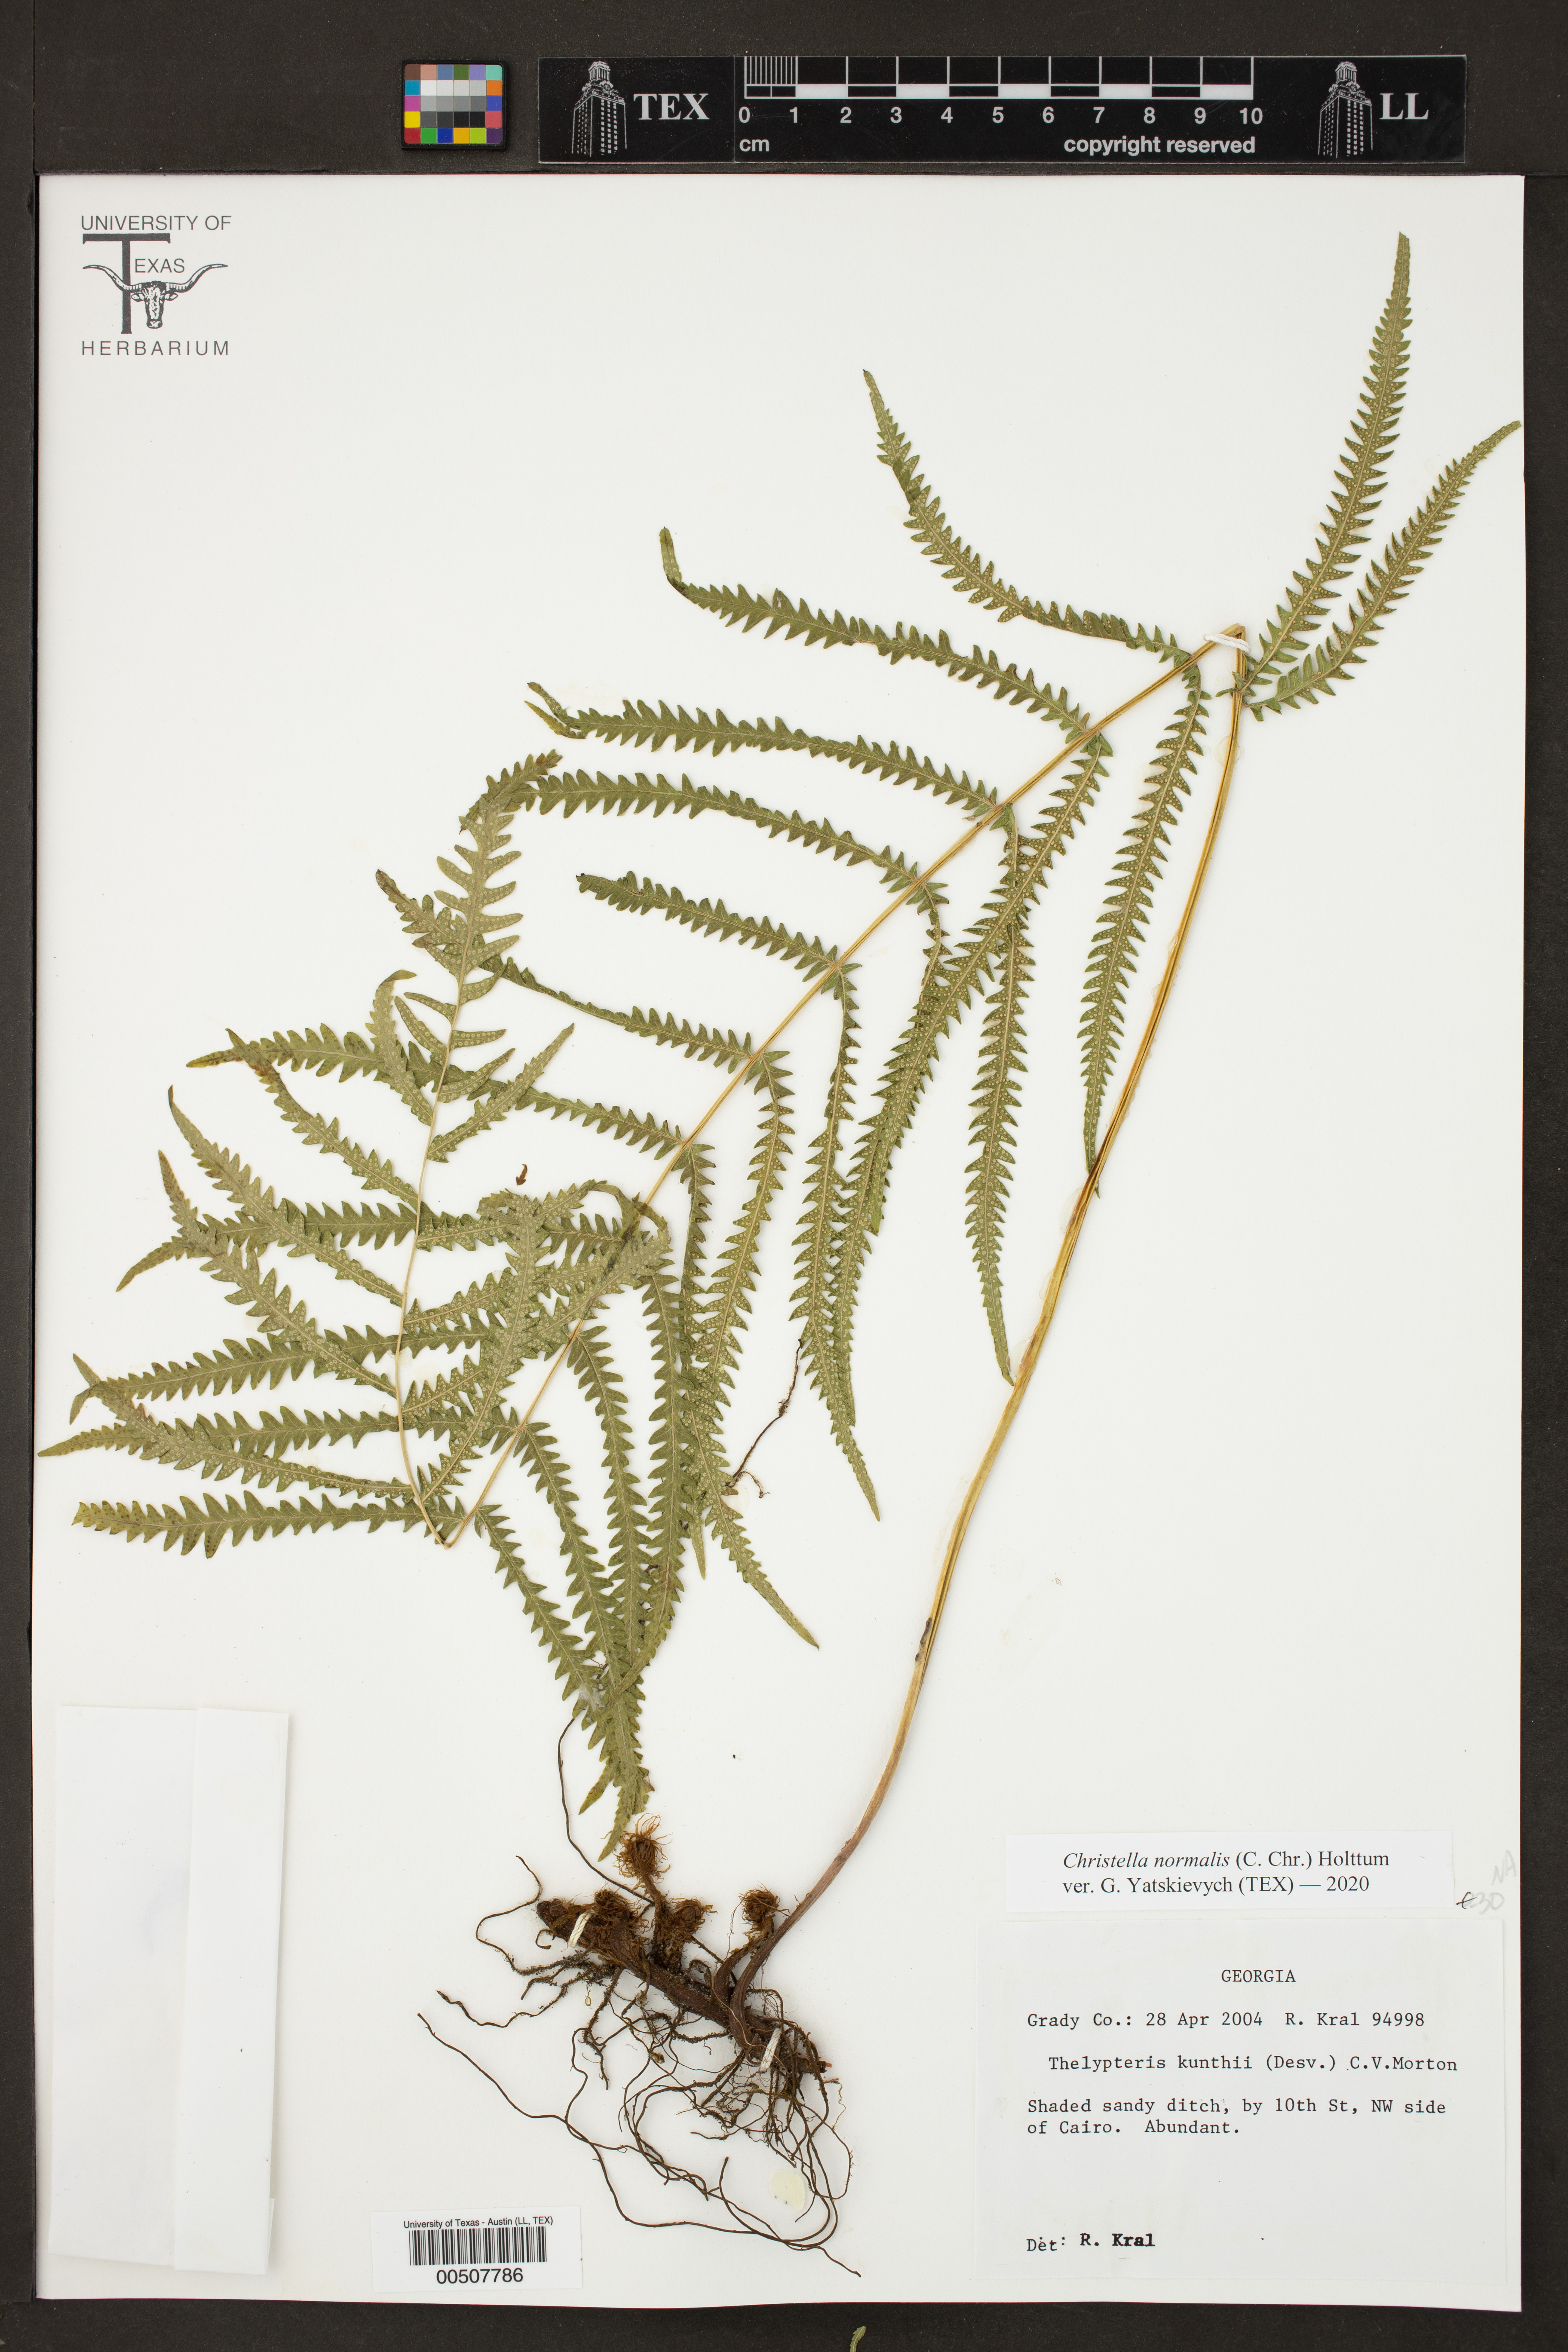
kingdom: Plantae
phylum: Tracheophyta
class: Polypodiopsida
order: Polypodiales
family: Thelypteridaceae
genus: Pelazoneuron
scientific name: Pelazoneuron kunthii
